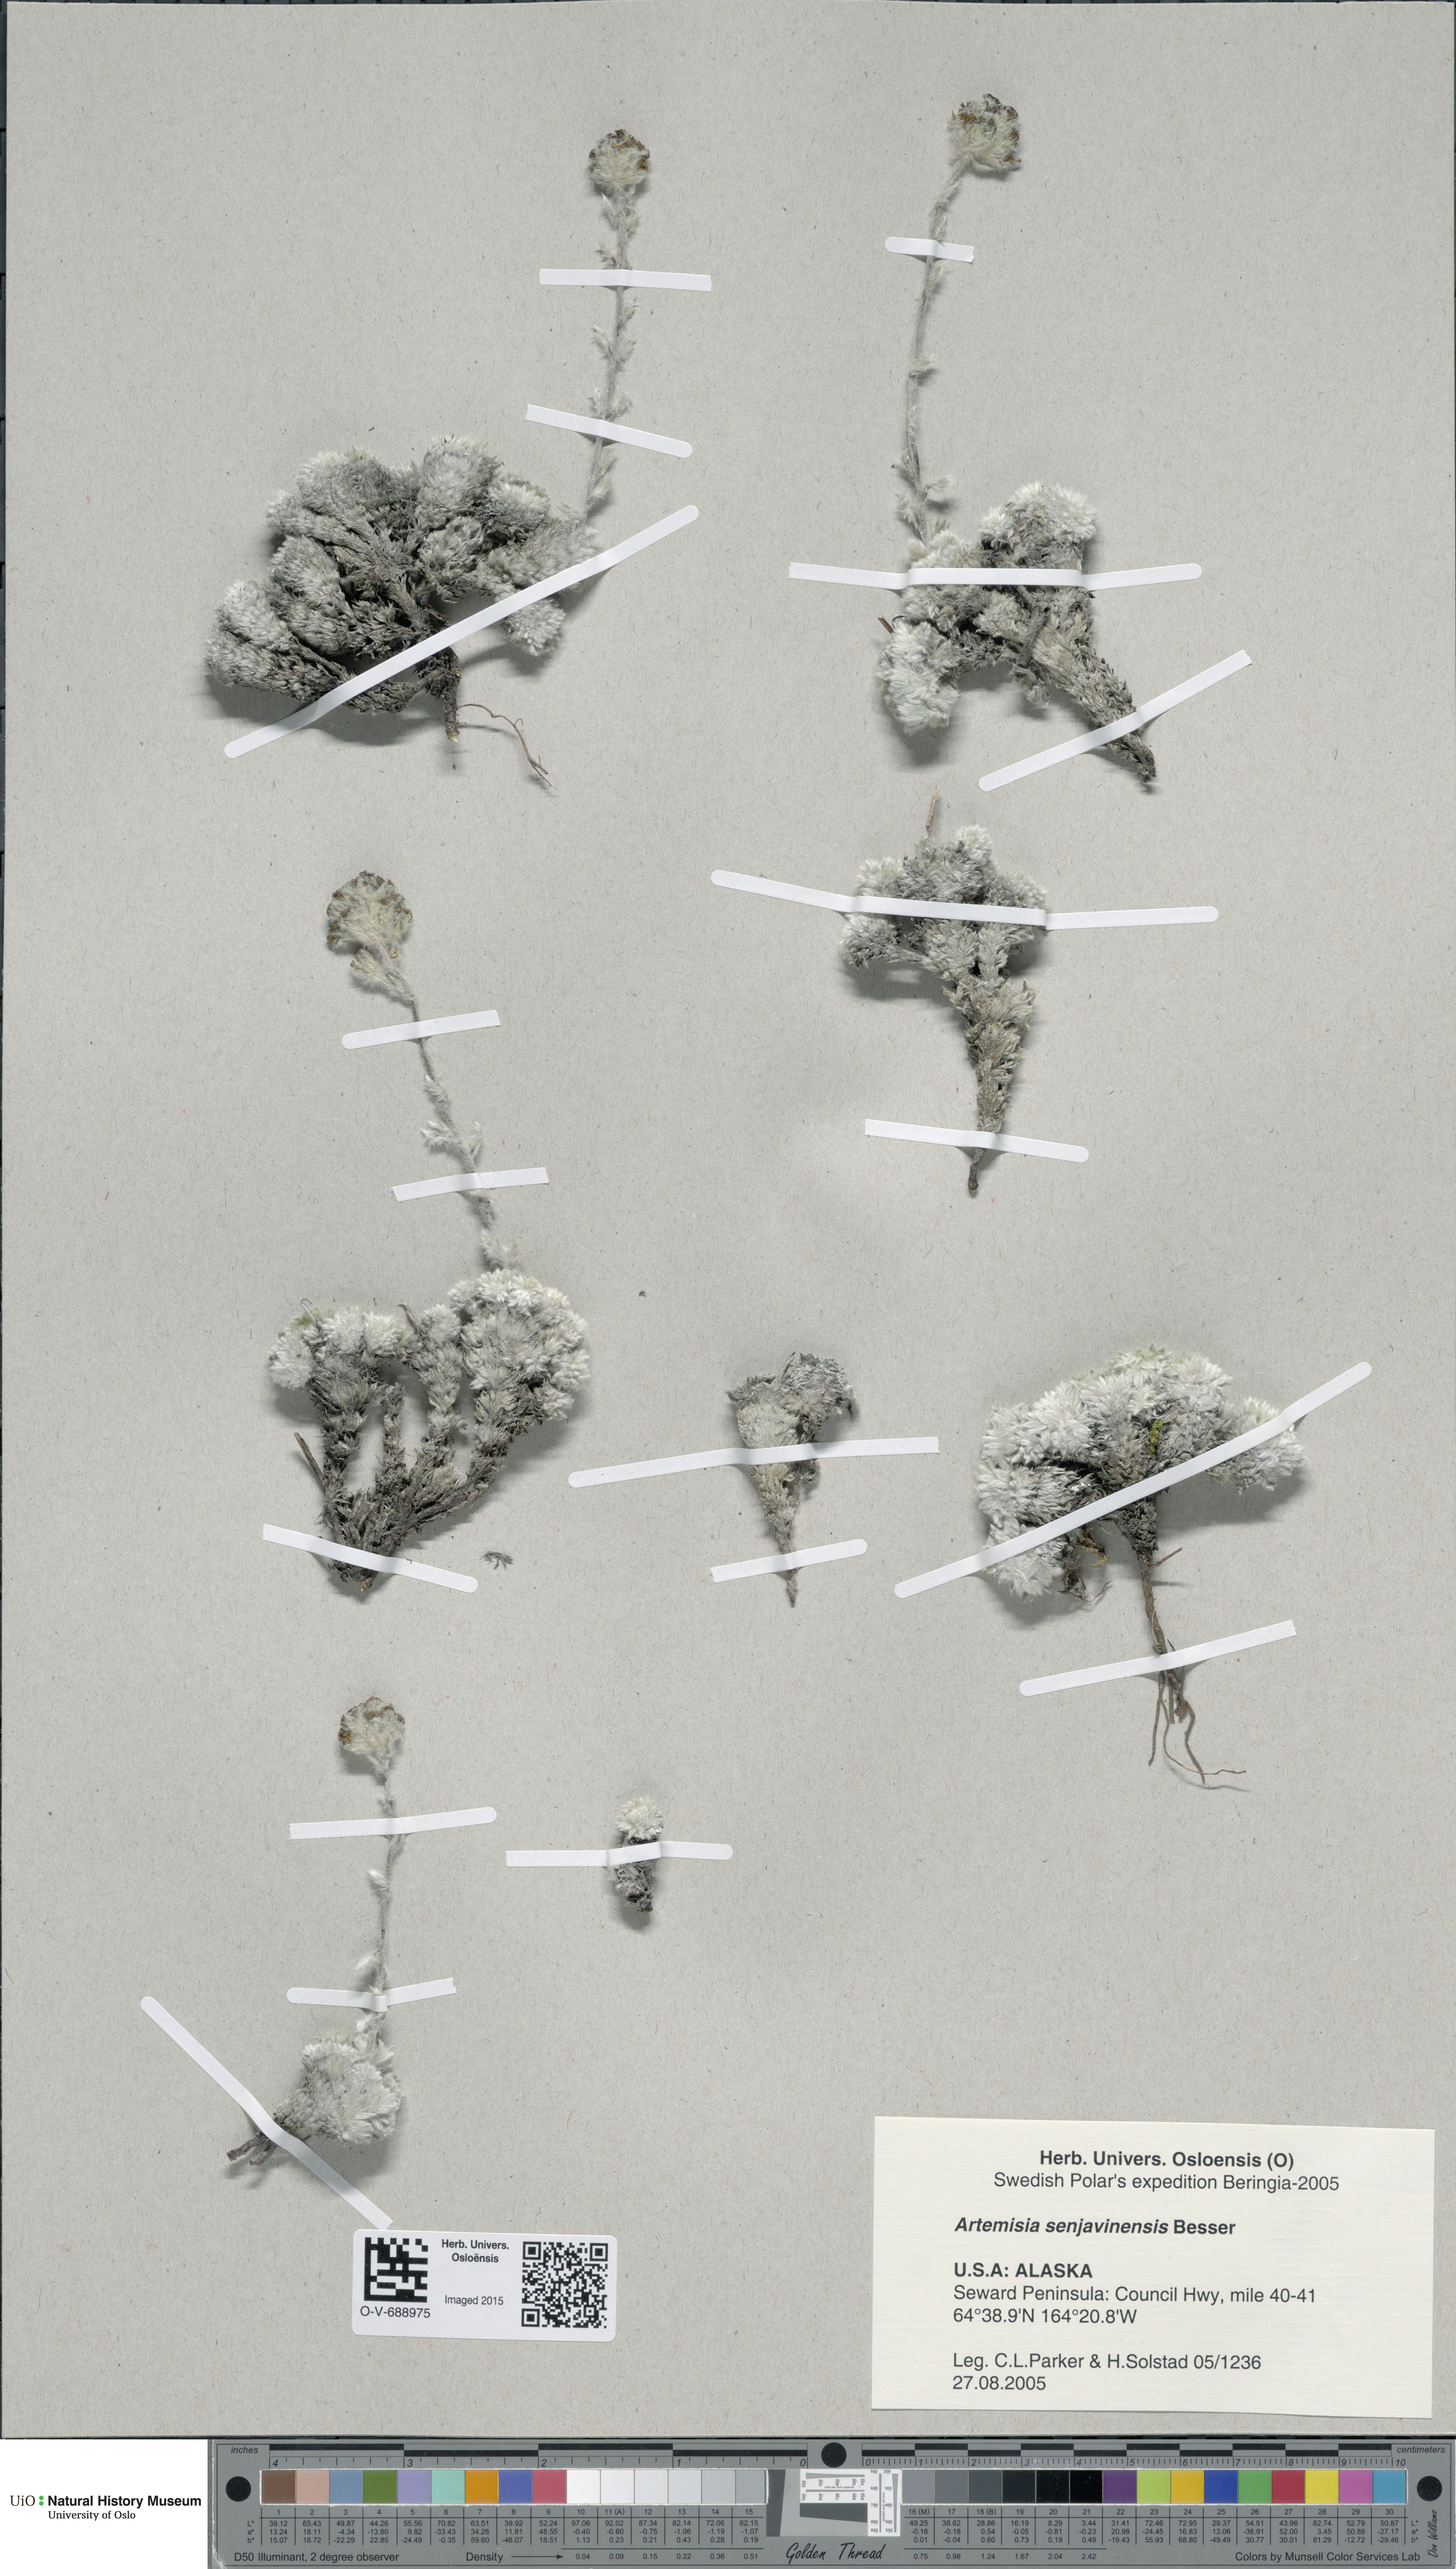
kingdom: Plantae
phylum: Tracheophyta
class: Magnoliopsida
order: Asterales
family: Asteraceae
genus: Artemisia
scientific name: Artemisia senjavinensis
